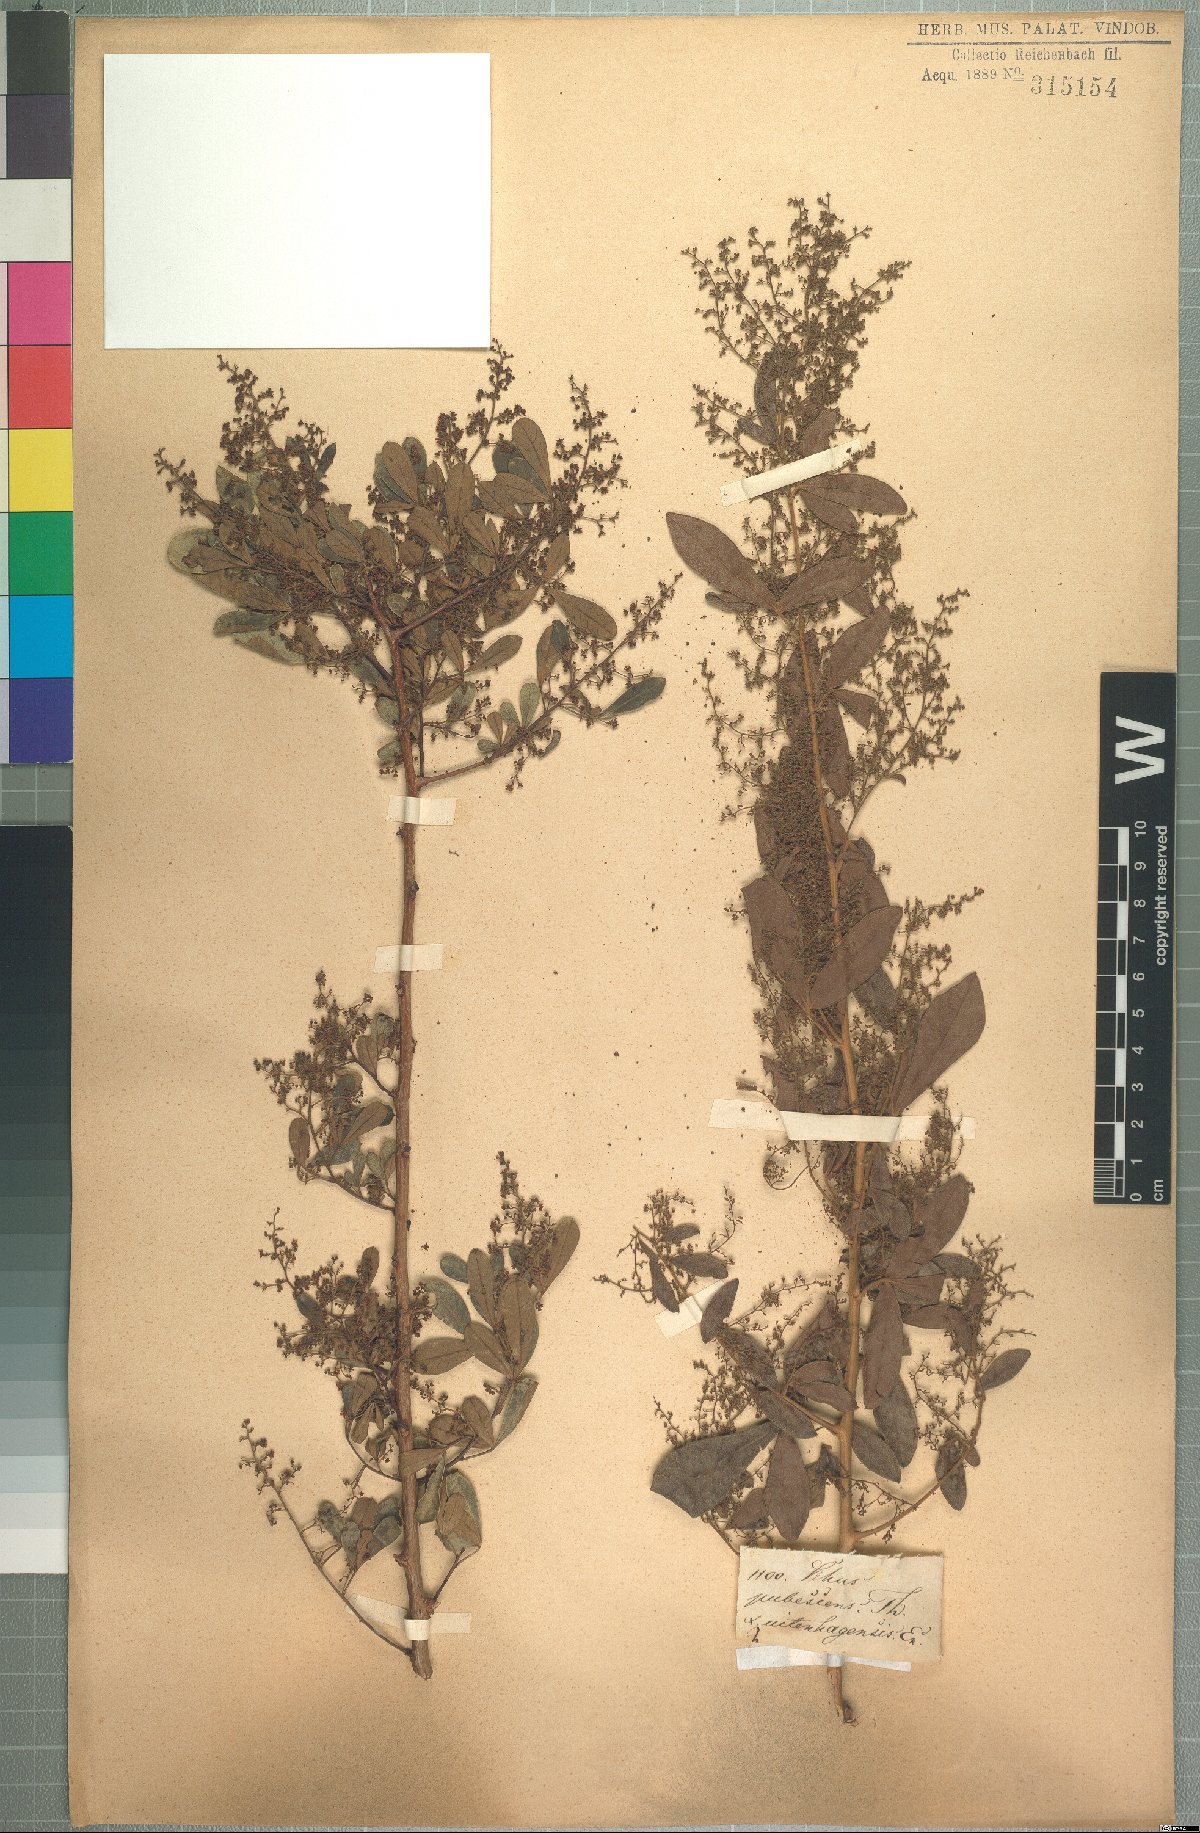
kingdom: Plantae
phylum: Tracheophyta
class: Magnoliopsida
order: Sapindales
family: Anacardiaceae
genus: Searsia
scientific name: Searsia rehmanniana
